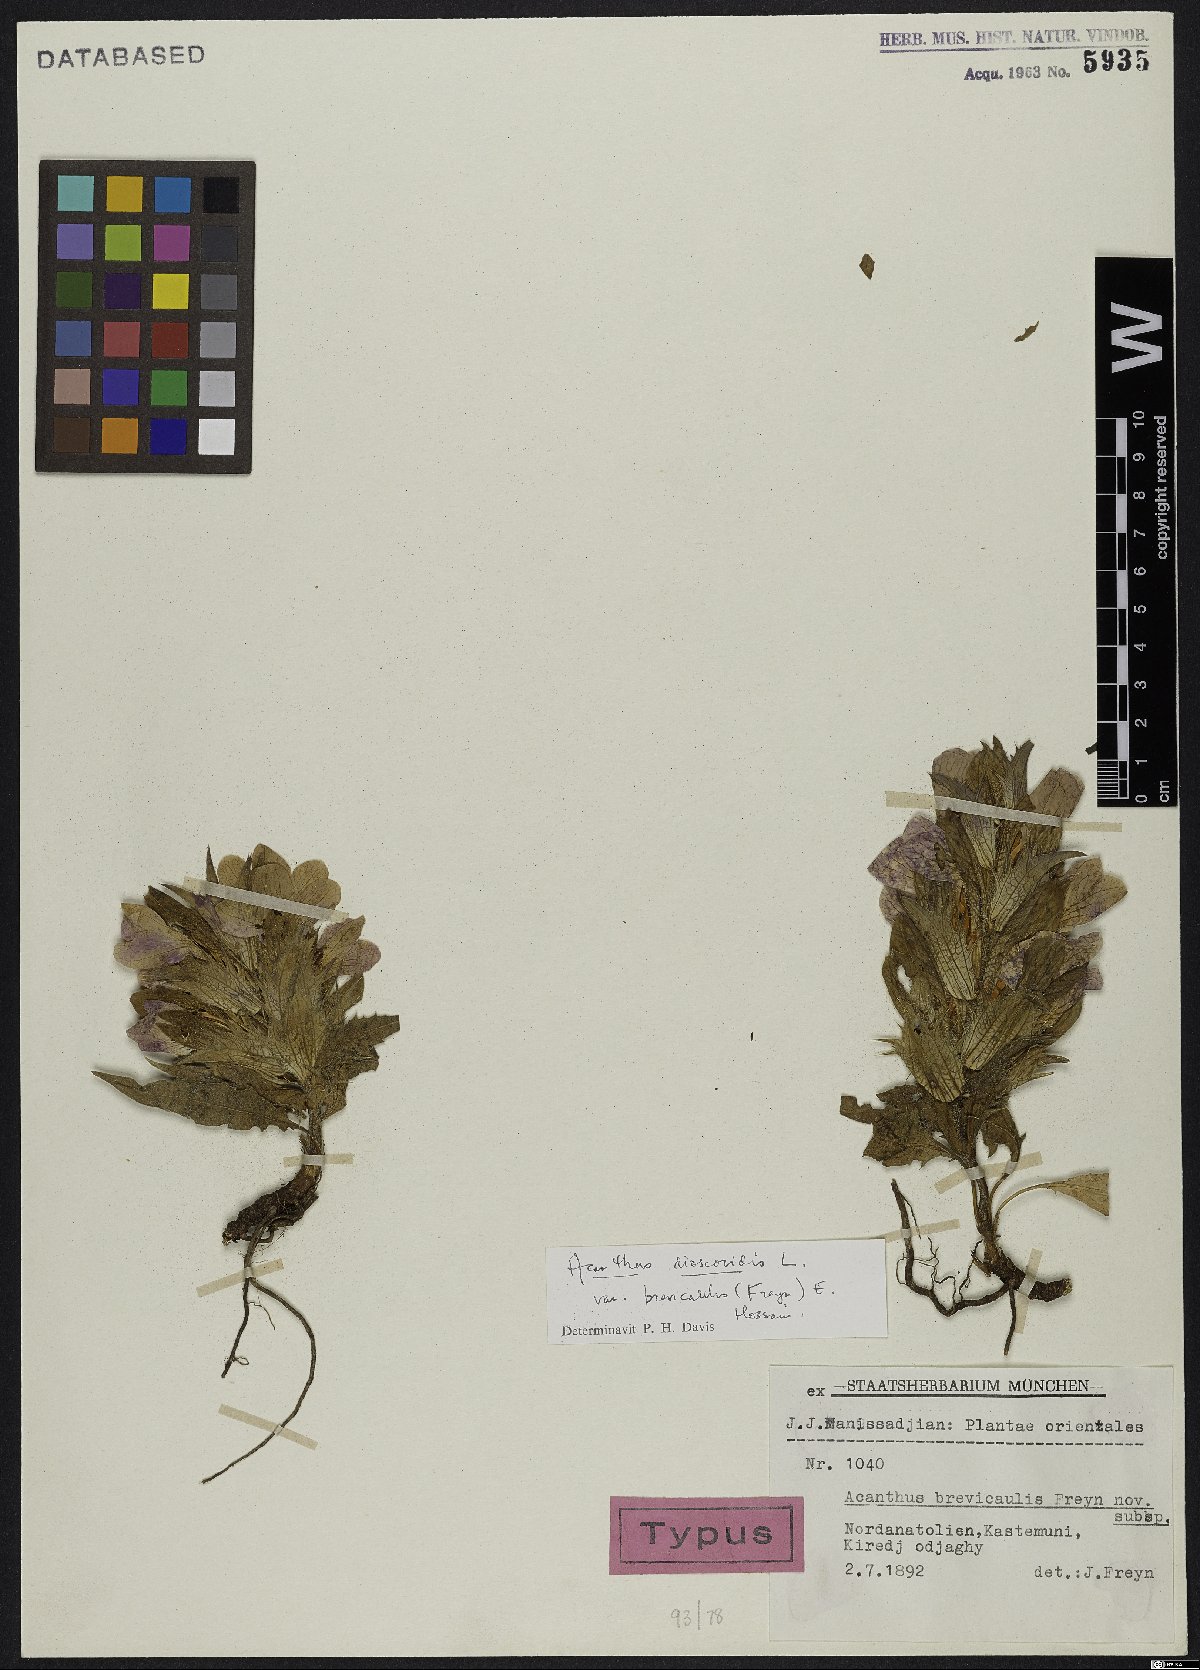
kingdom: Plantae
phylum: Tracheophyta
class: Magnoliopsida
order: Lamiales
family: Acanthaceae
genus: Acanthus
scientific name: Acanthus dioscoridis
